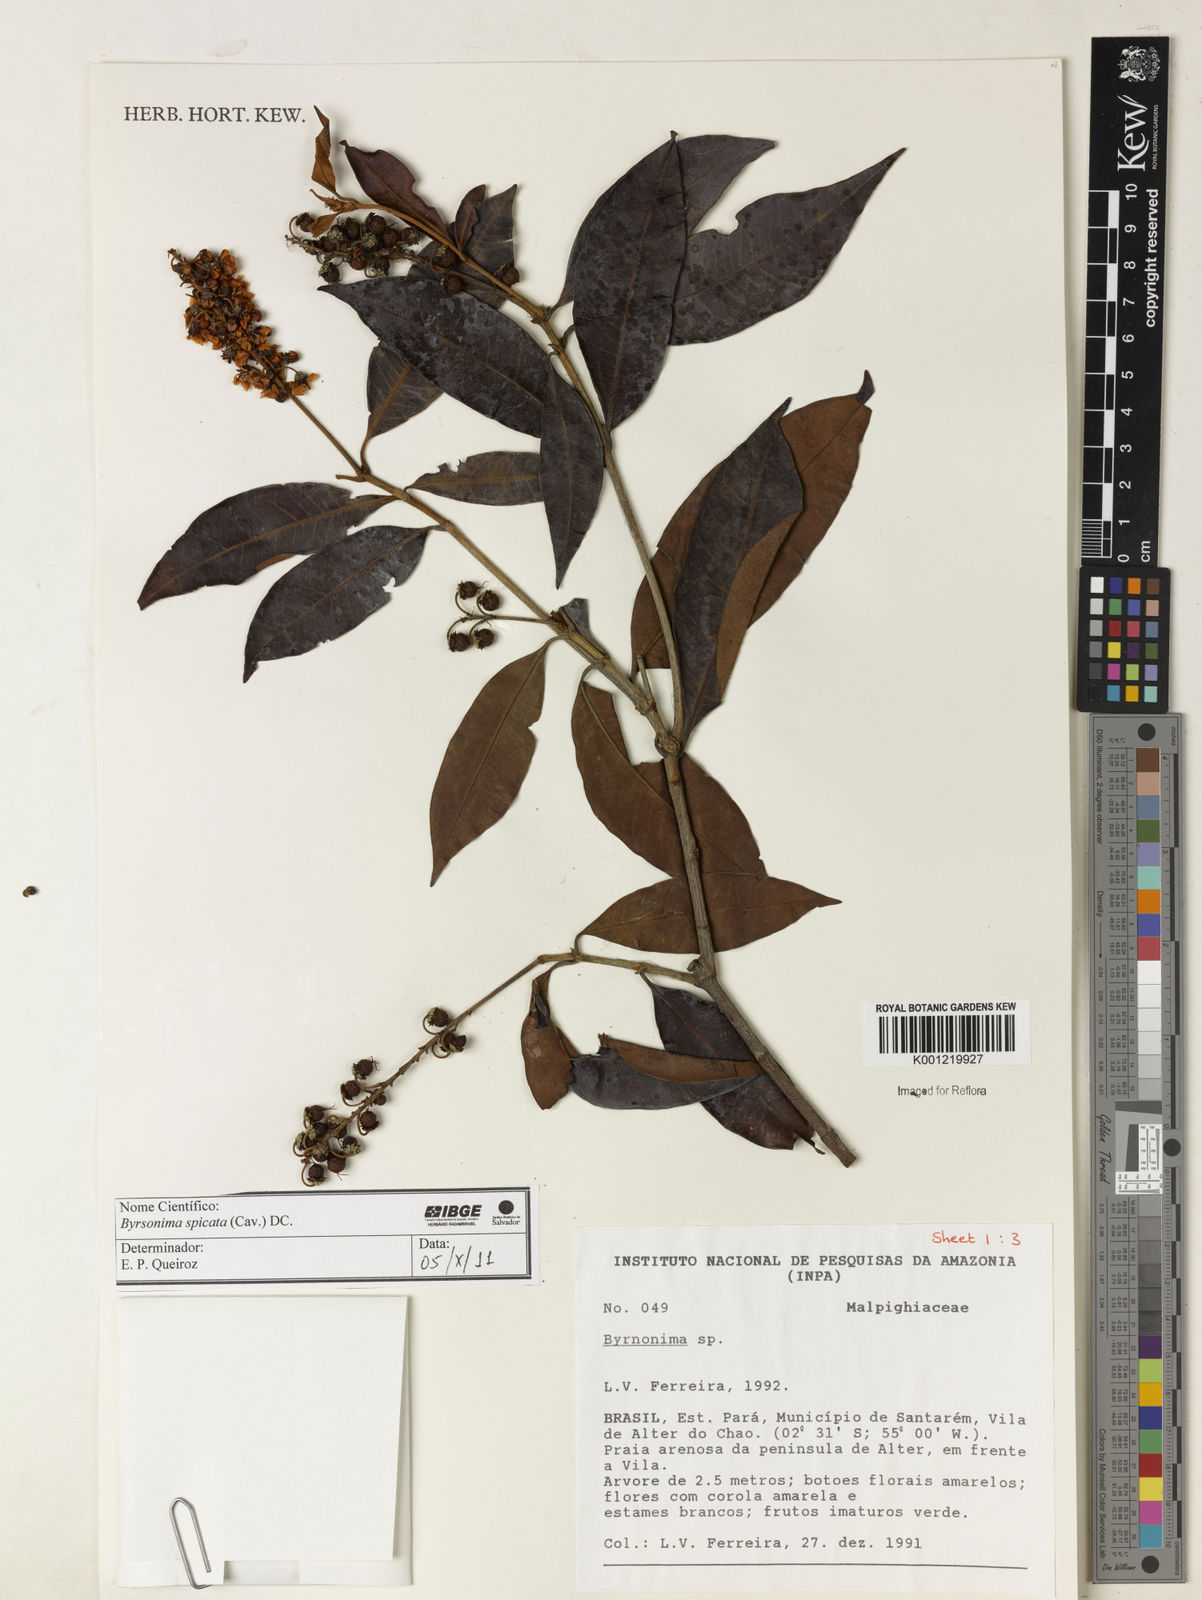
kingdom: Plantae
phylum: Tracheophyta
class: Magnoliopsida
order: Malpighiales
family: Malpighiaceae
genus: Byrsonima
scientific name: Byrsonima
